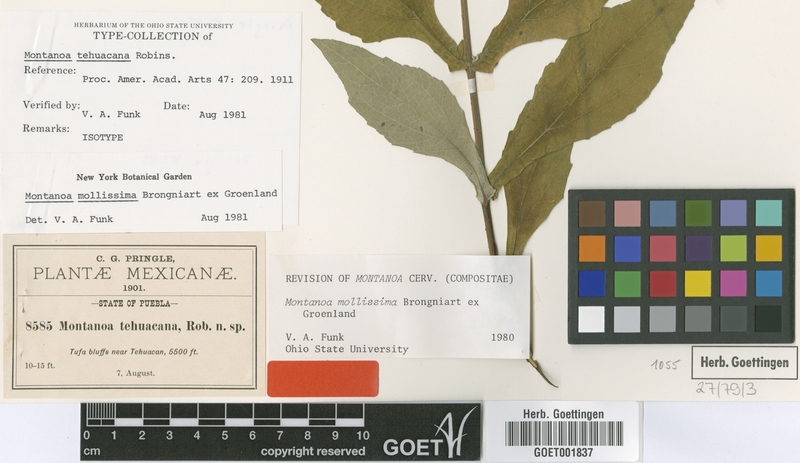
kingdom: Plantae
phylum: Tracheophyta
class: Magnoliopsida
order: Asterales
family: Asteraceae
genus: Montanoa
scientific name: Montanoa mollissima
